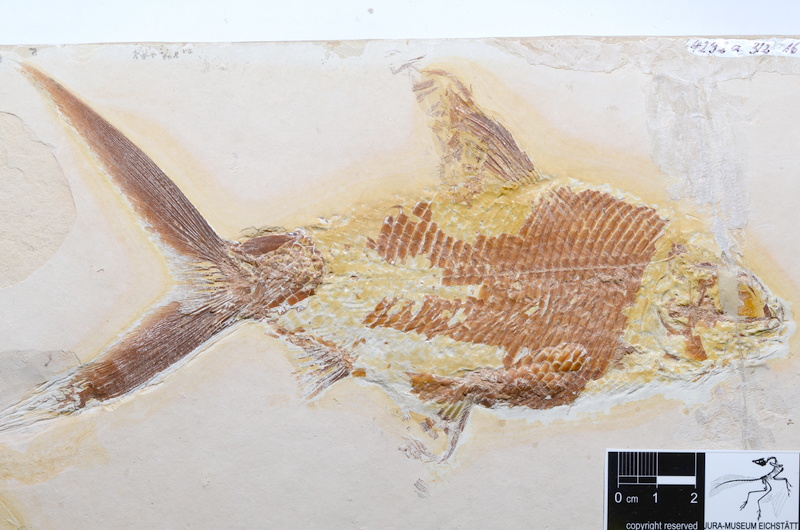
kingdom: Animalia
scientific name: Animalia
